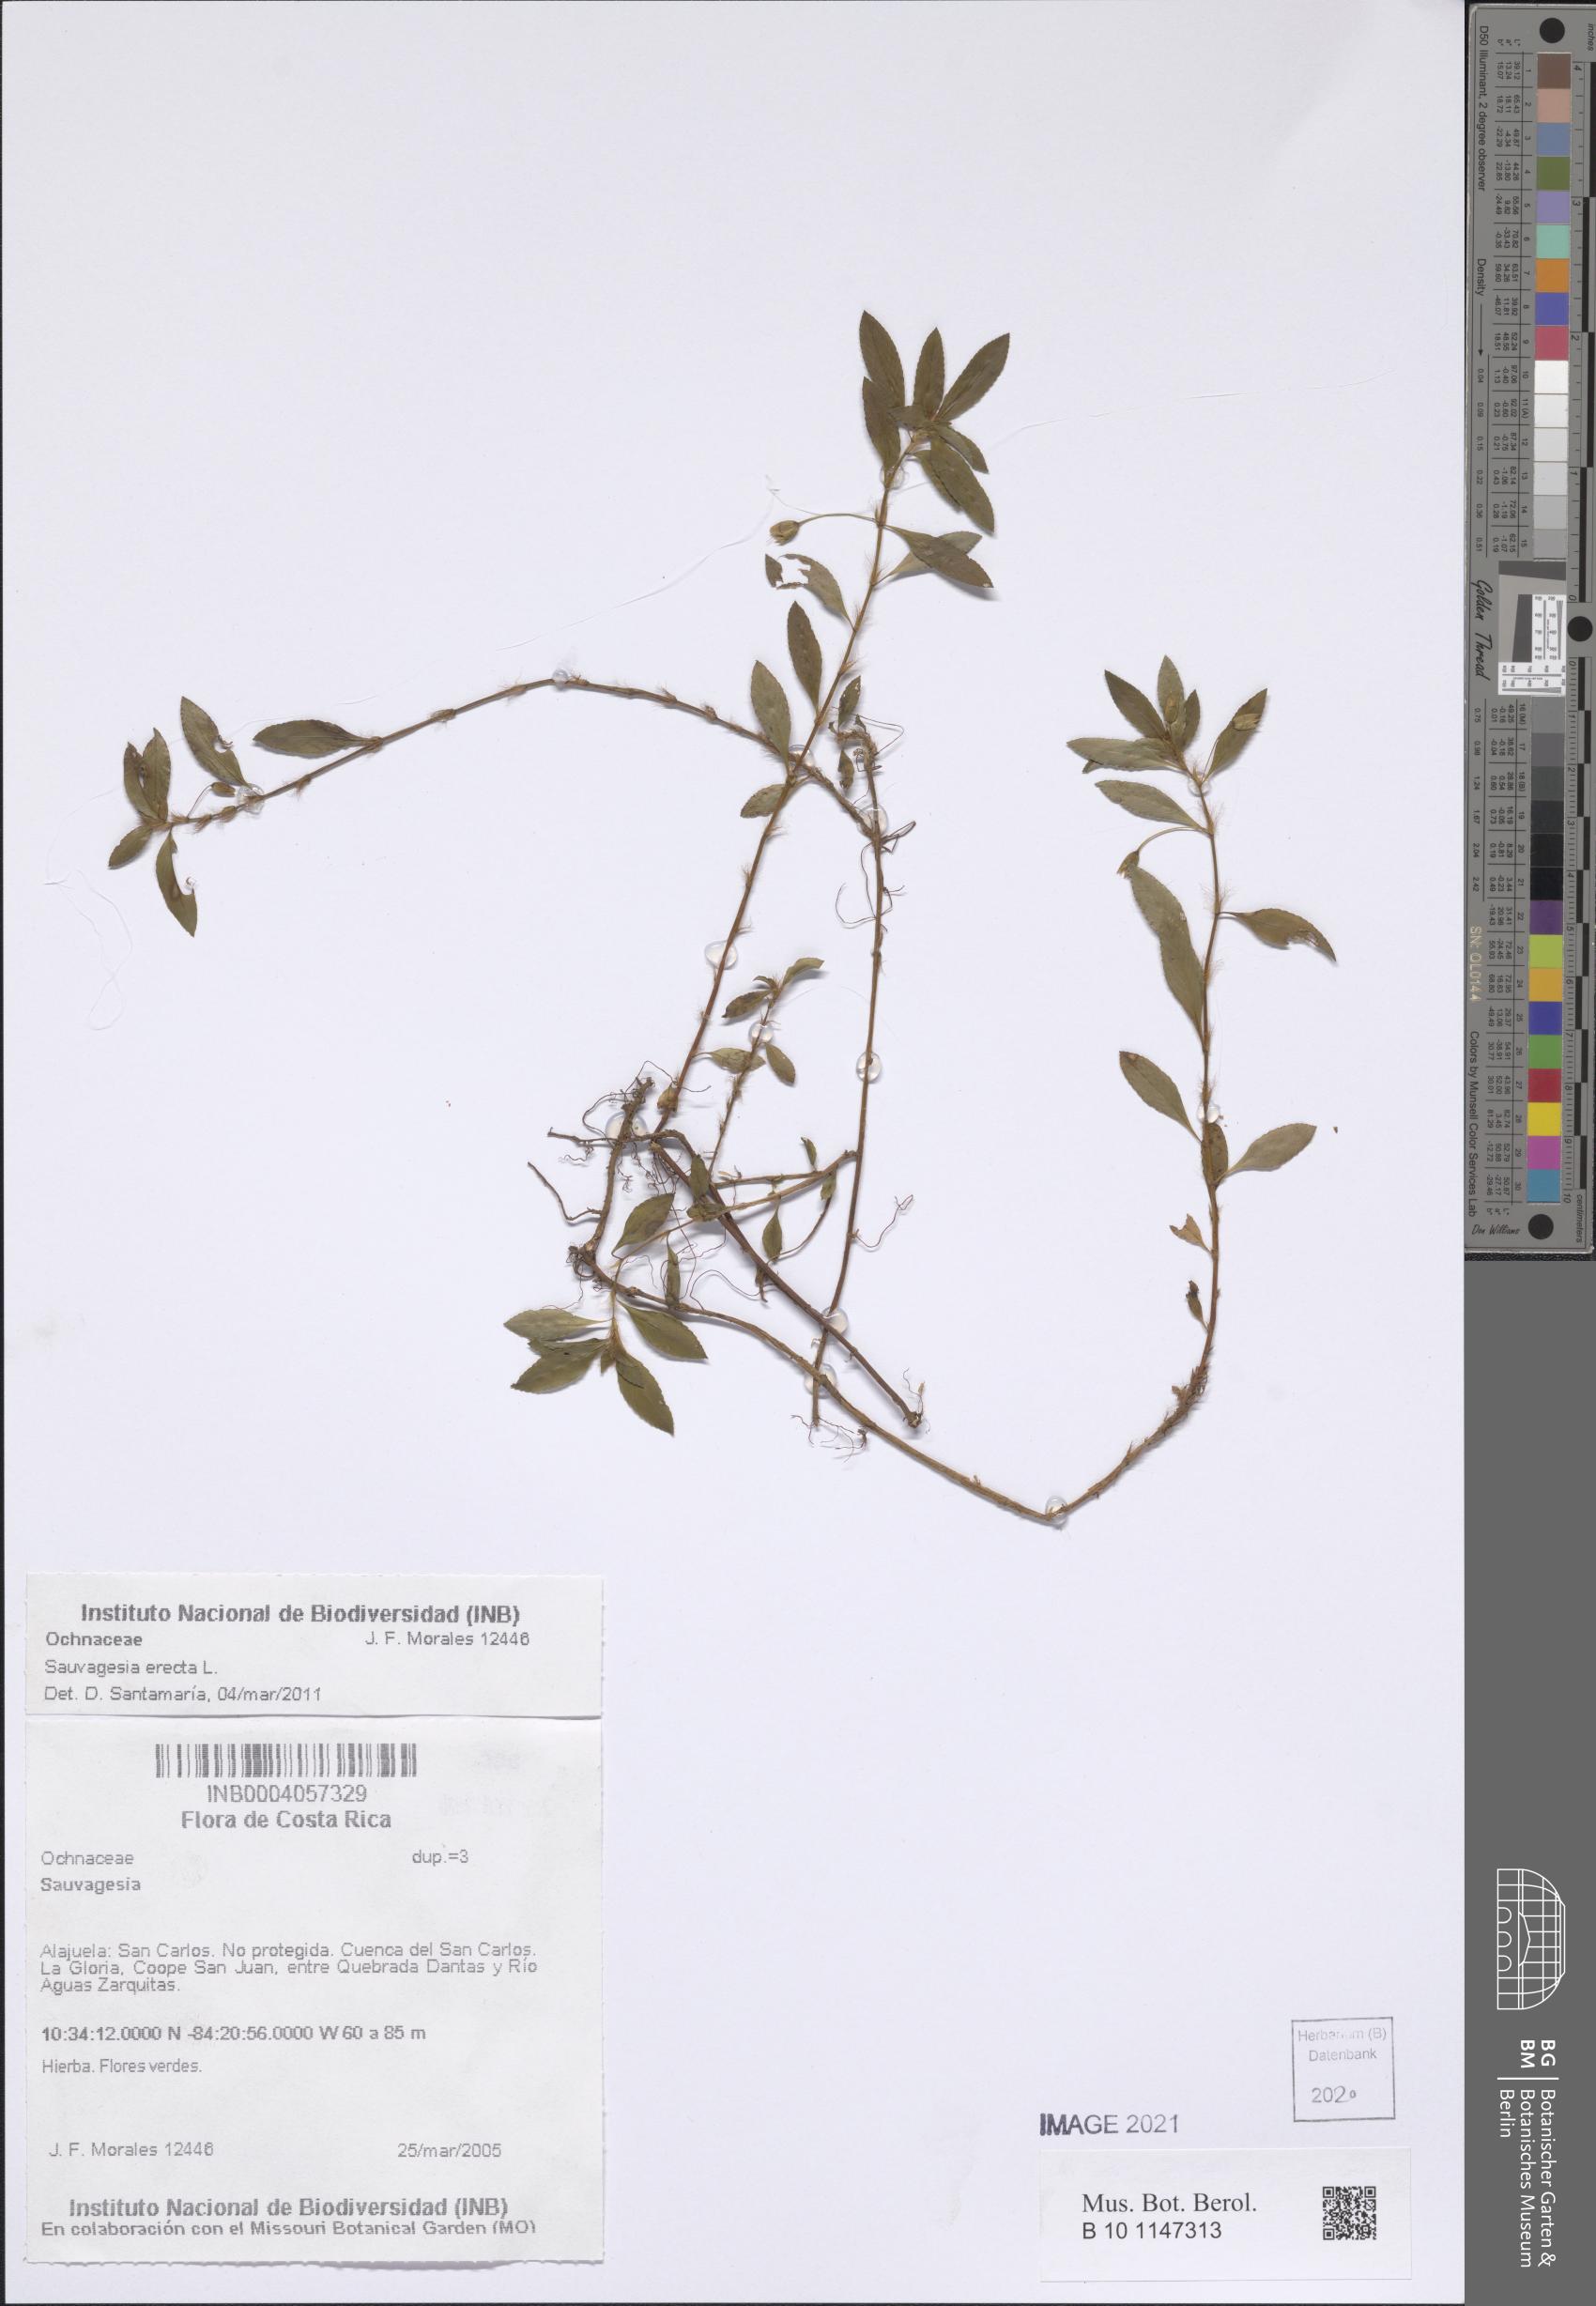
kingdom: Plantae
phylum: Tracheophyta
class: Magnoliopsida
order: Malpighiales
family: Ochnaceae
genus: Sauvagesia
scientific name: Sauvagesia erecta
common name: Creole tea
